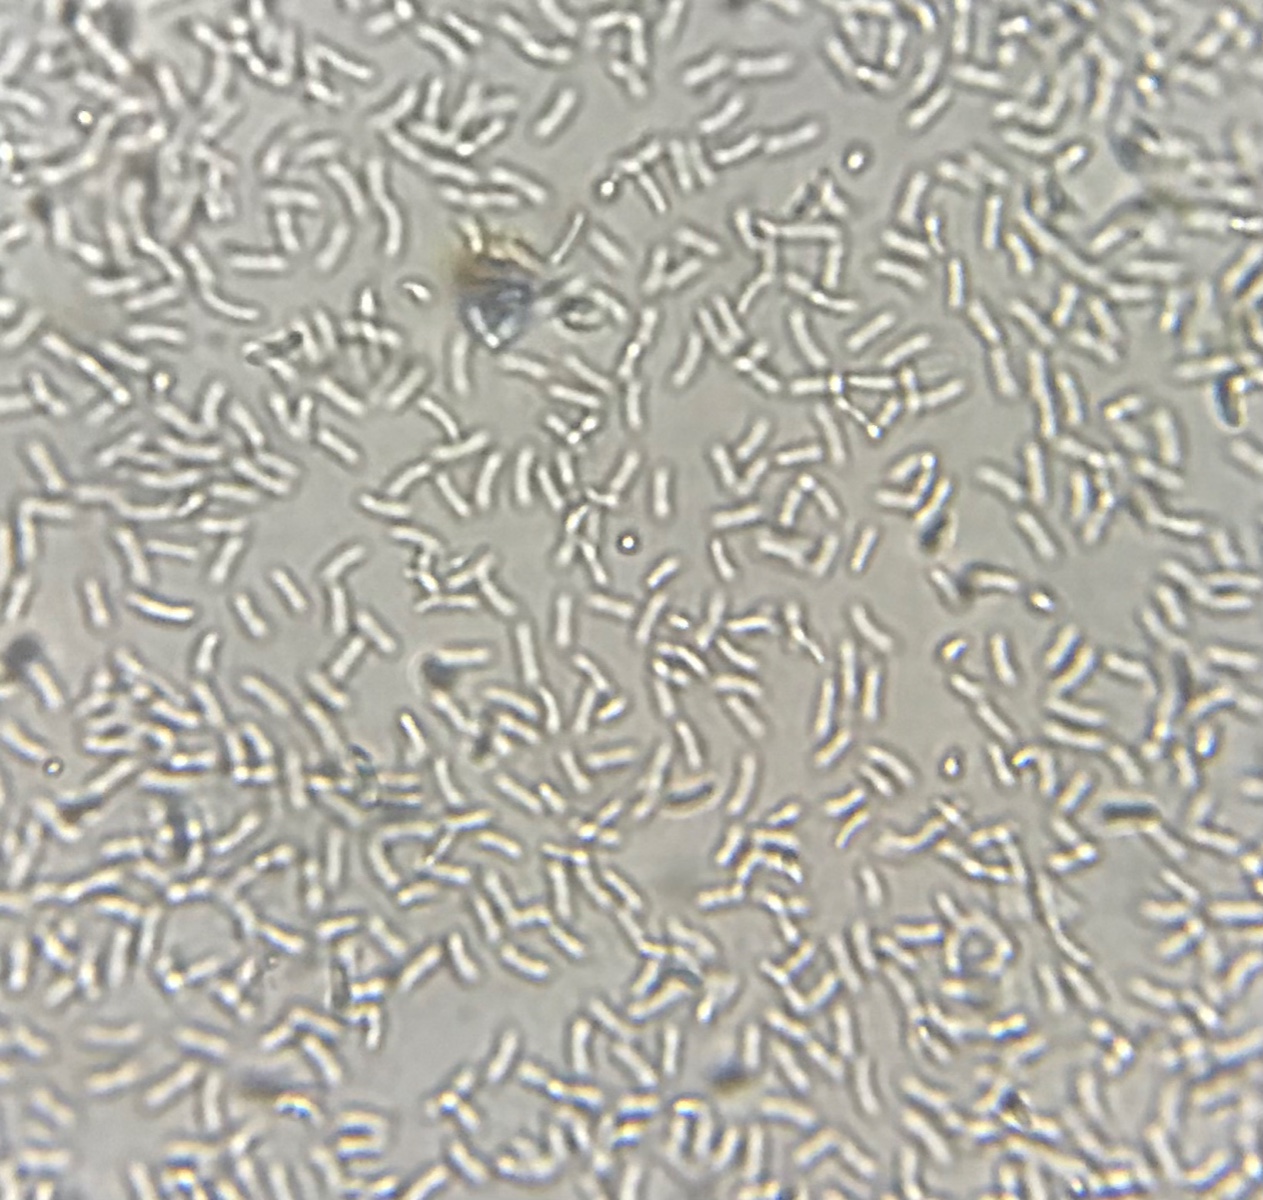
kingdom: Fungi
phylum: Ascomycota
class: Sordariomycetes
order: Diaporthales
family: Valsaceae
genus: Cytospora
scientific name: Cytospora
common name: kulknippe
